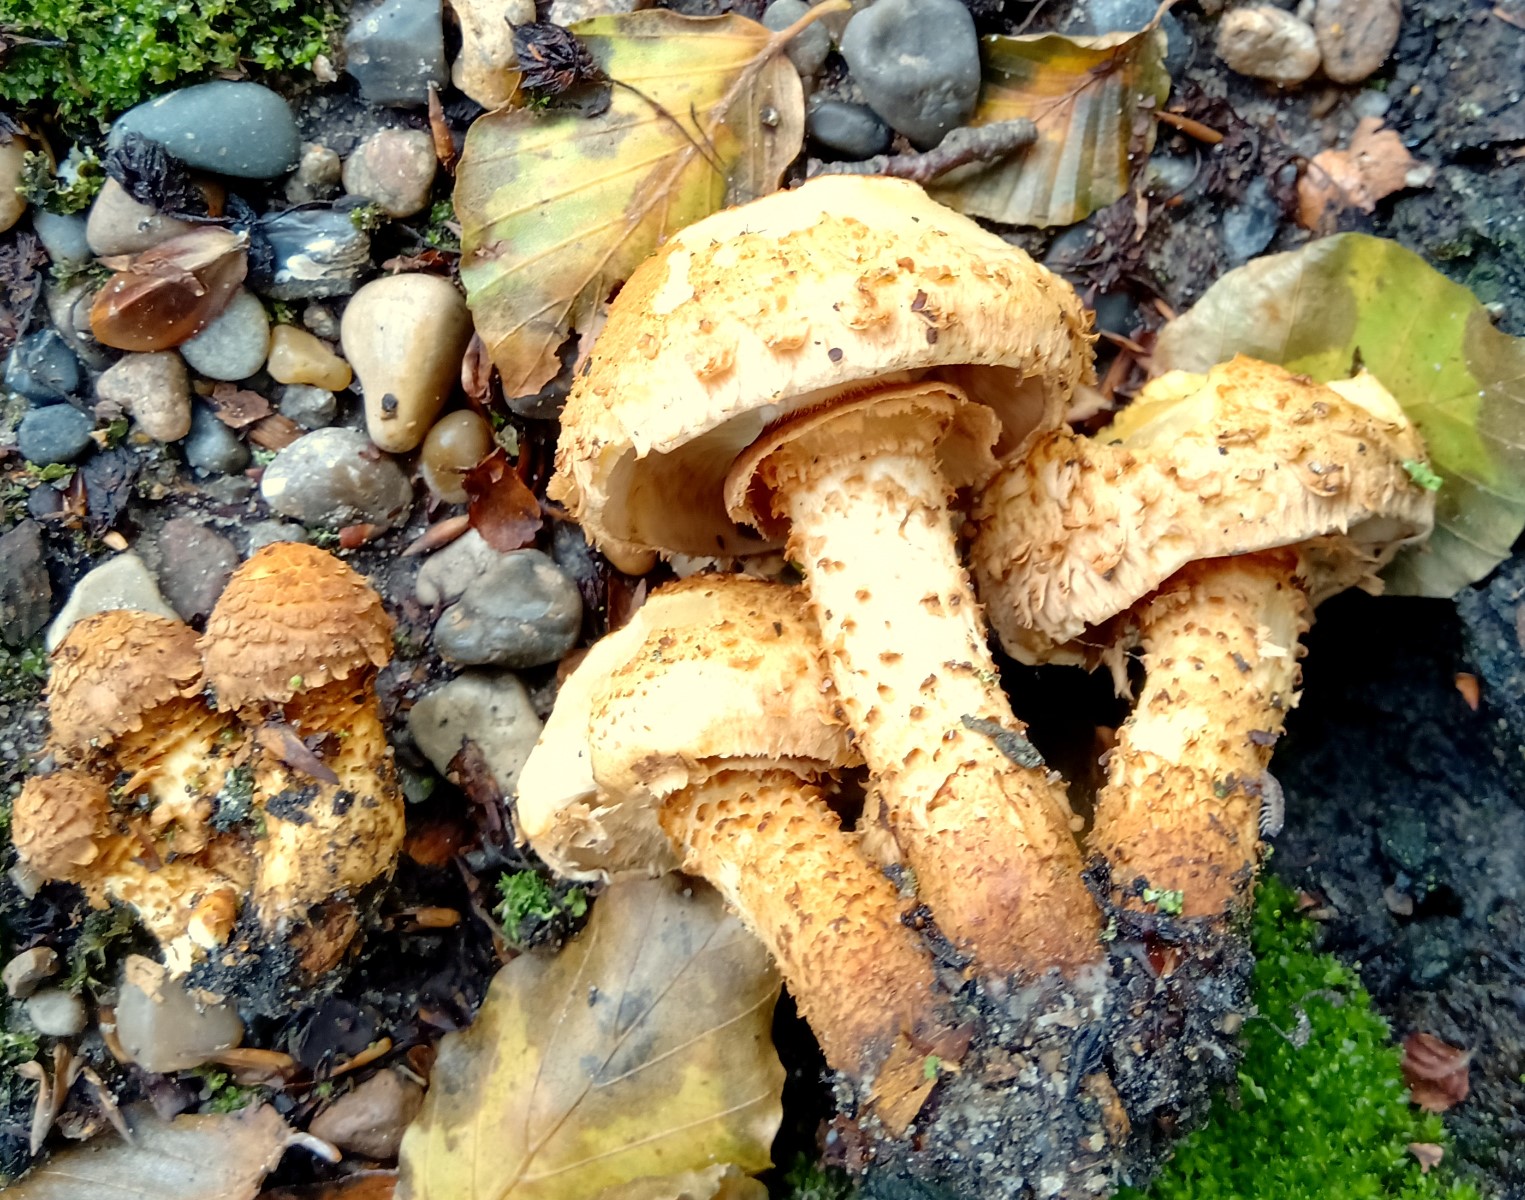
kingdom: Fungi
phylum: Basidiomycota
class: Agaricomycetes
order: Agaricales
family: Strophariaceae
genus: Pholiota
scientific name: Pholiota squarrosa
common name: krumskællet skælhat
